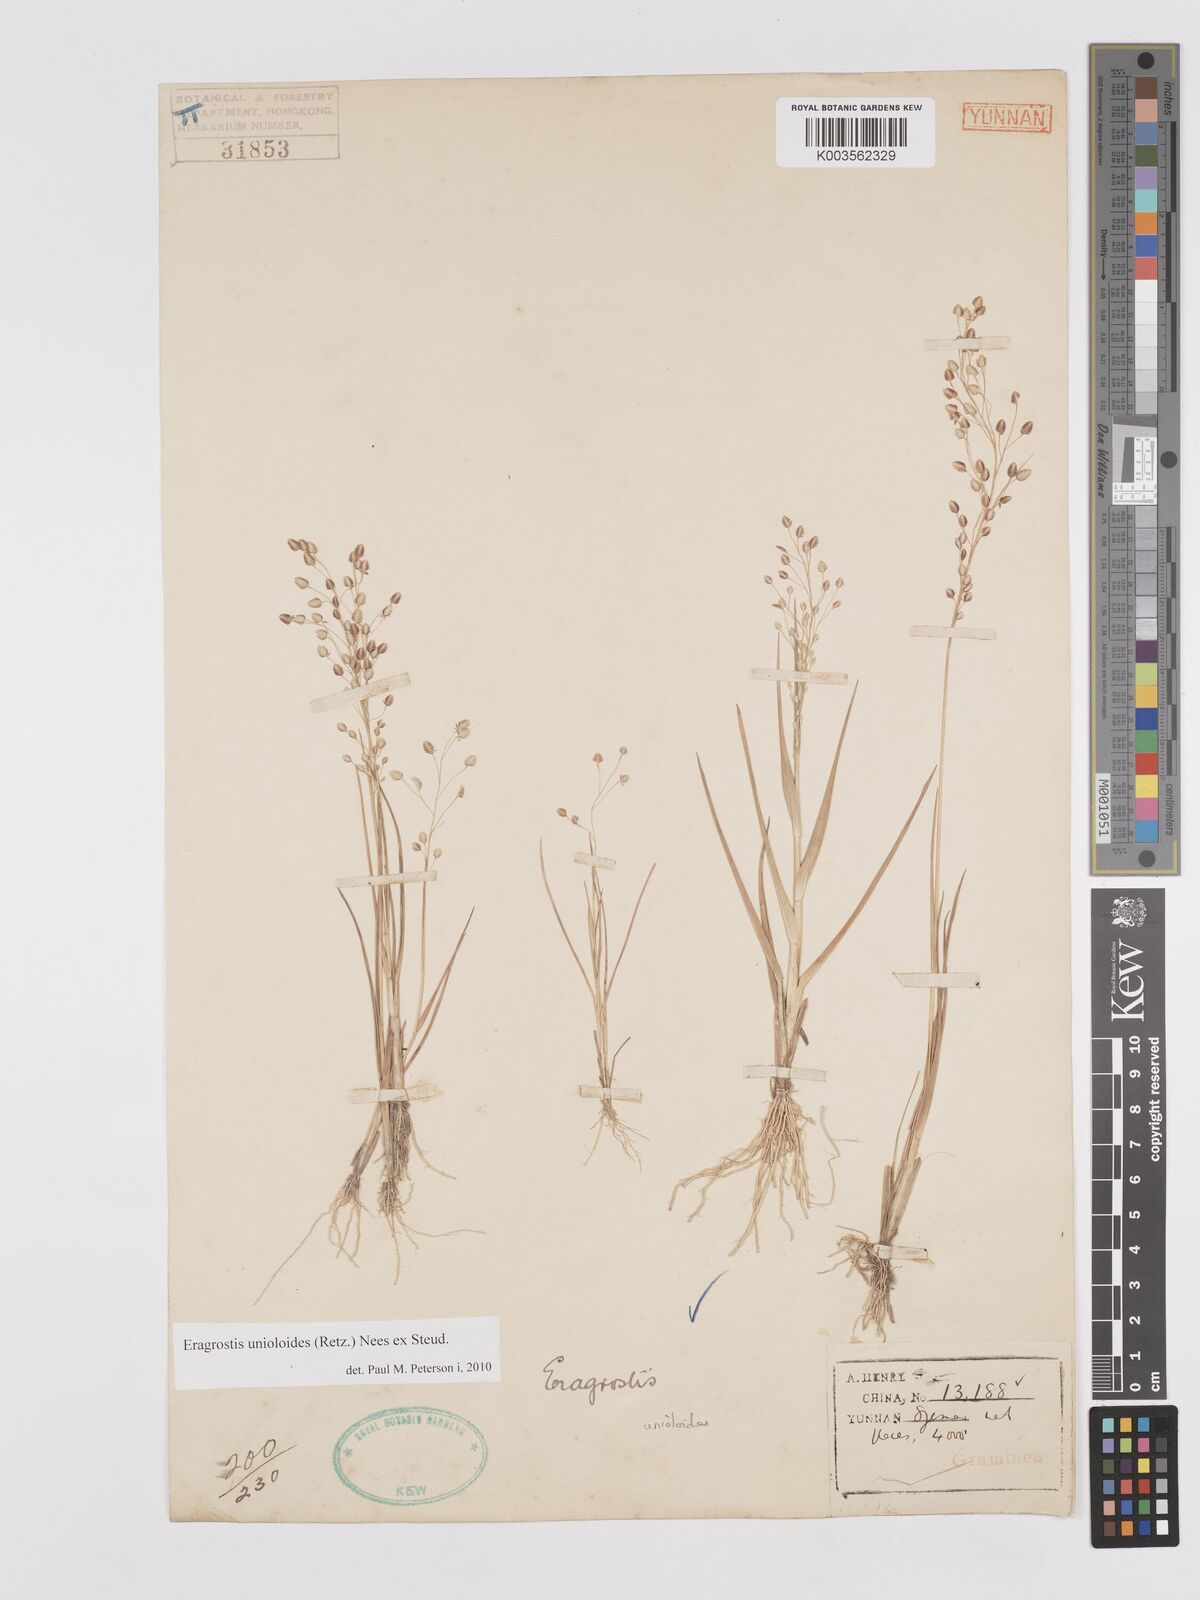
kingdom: Plantae
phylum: Tracheophyta
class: Liliopsida
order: Poales
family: Poaceae
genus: Eragrostis
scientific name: Eragrostis unioloides
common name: Chinese lovegrass
